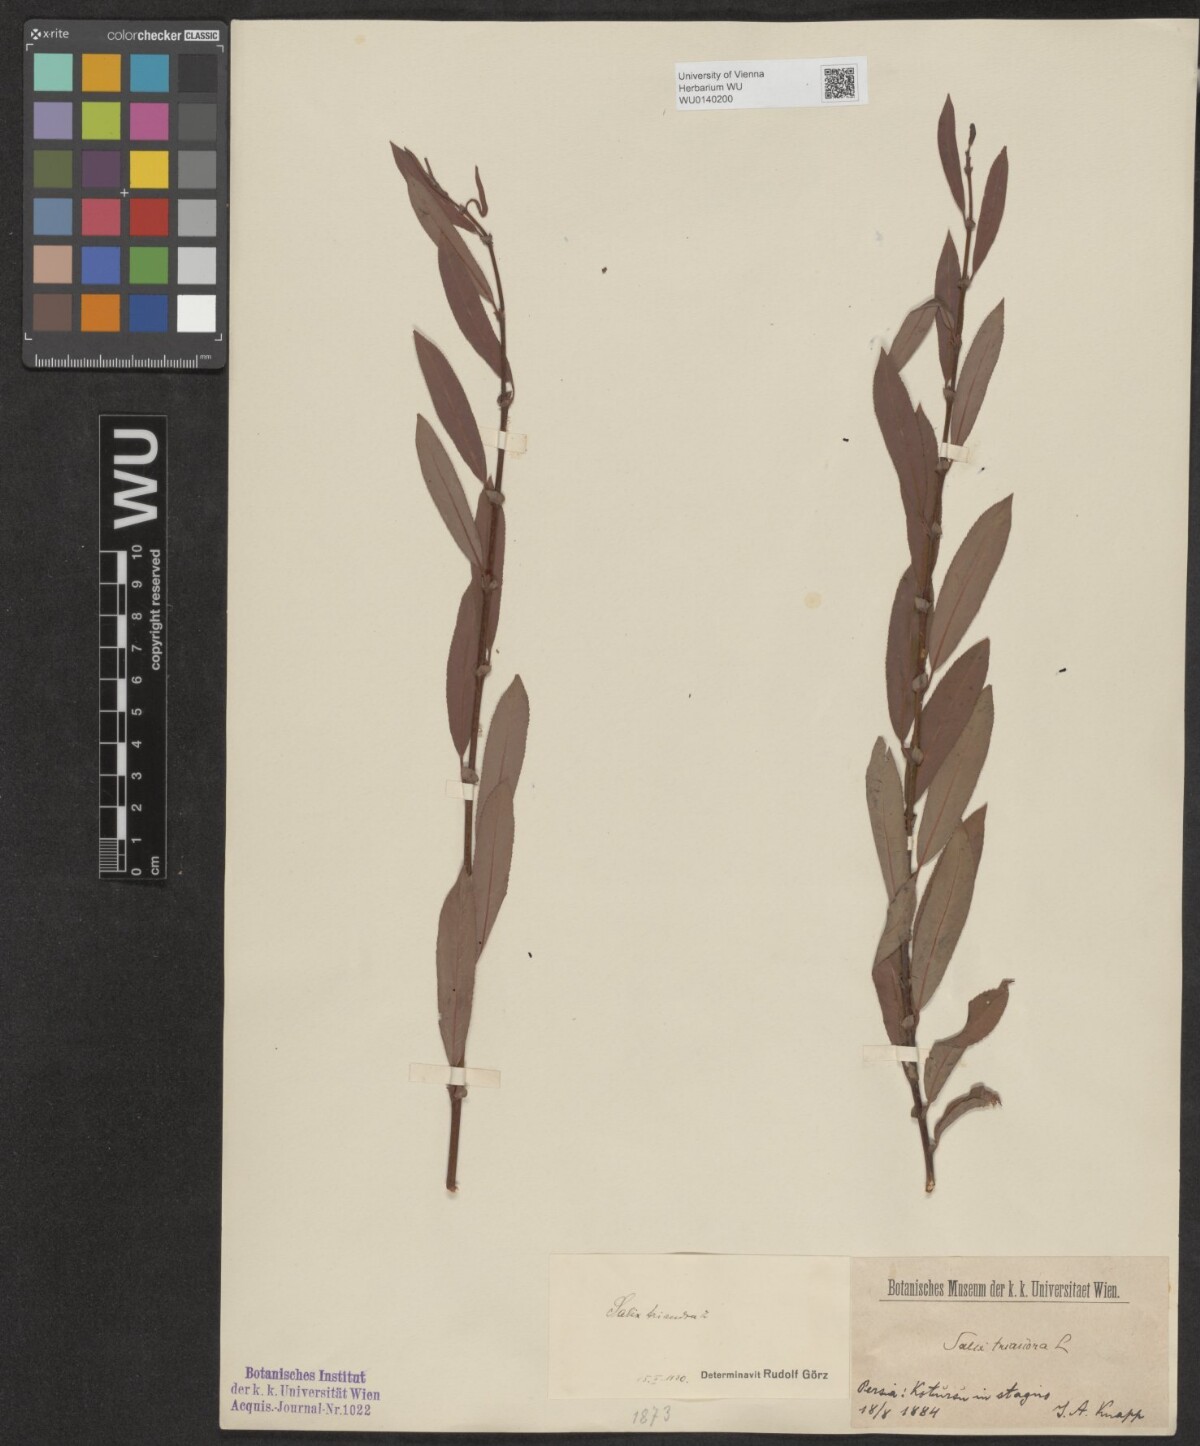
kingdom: Plantae
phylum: Tracheophyta
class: Magnoliopsida
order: Malpighiales
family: Salicaceae
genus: Salix
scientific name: Salix triandra
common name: Almond willow
